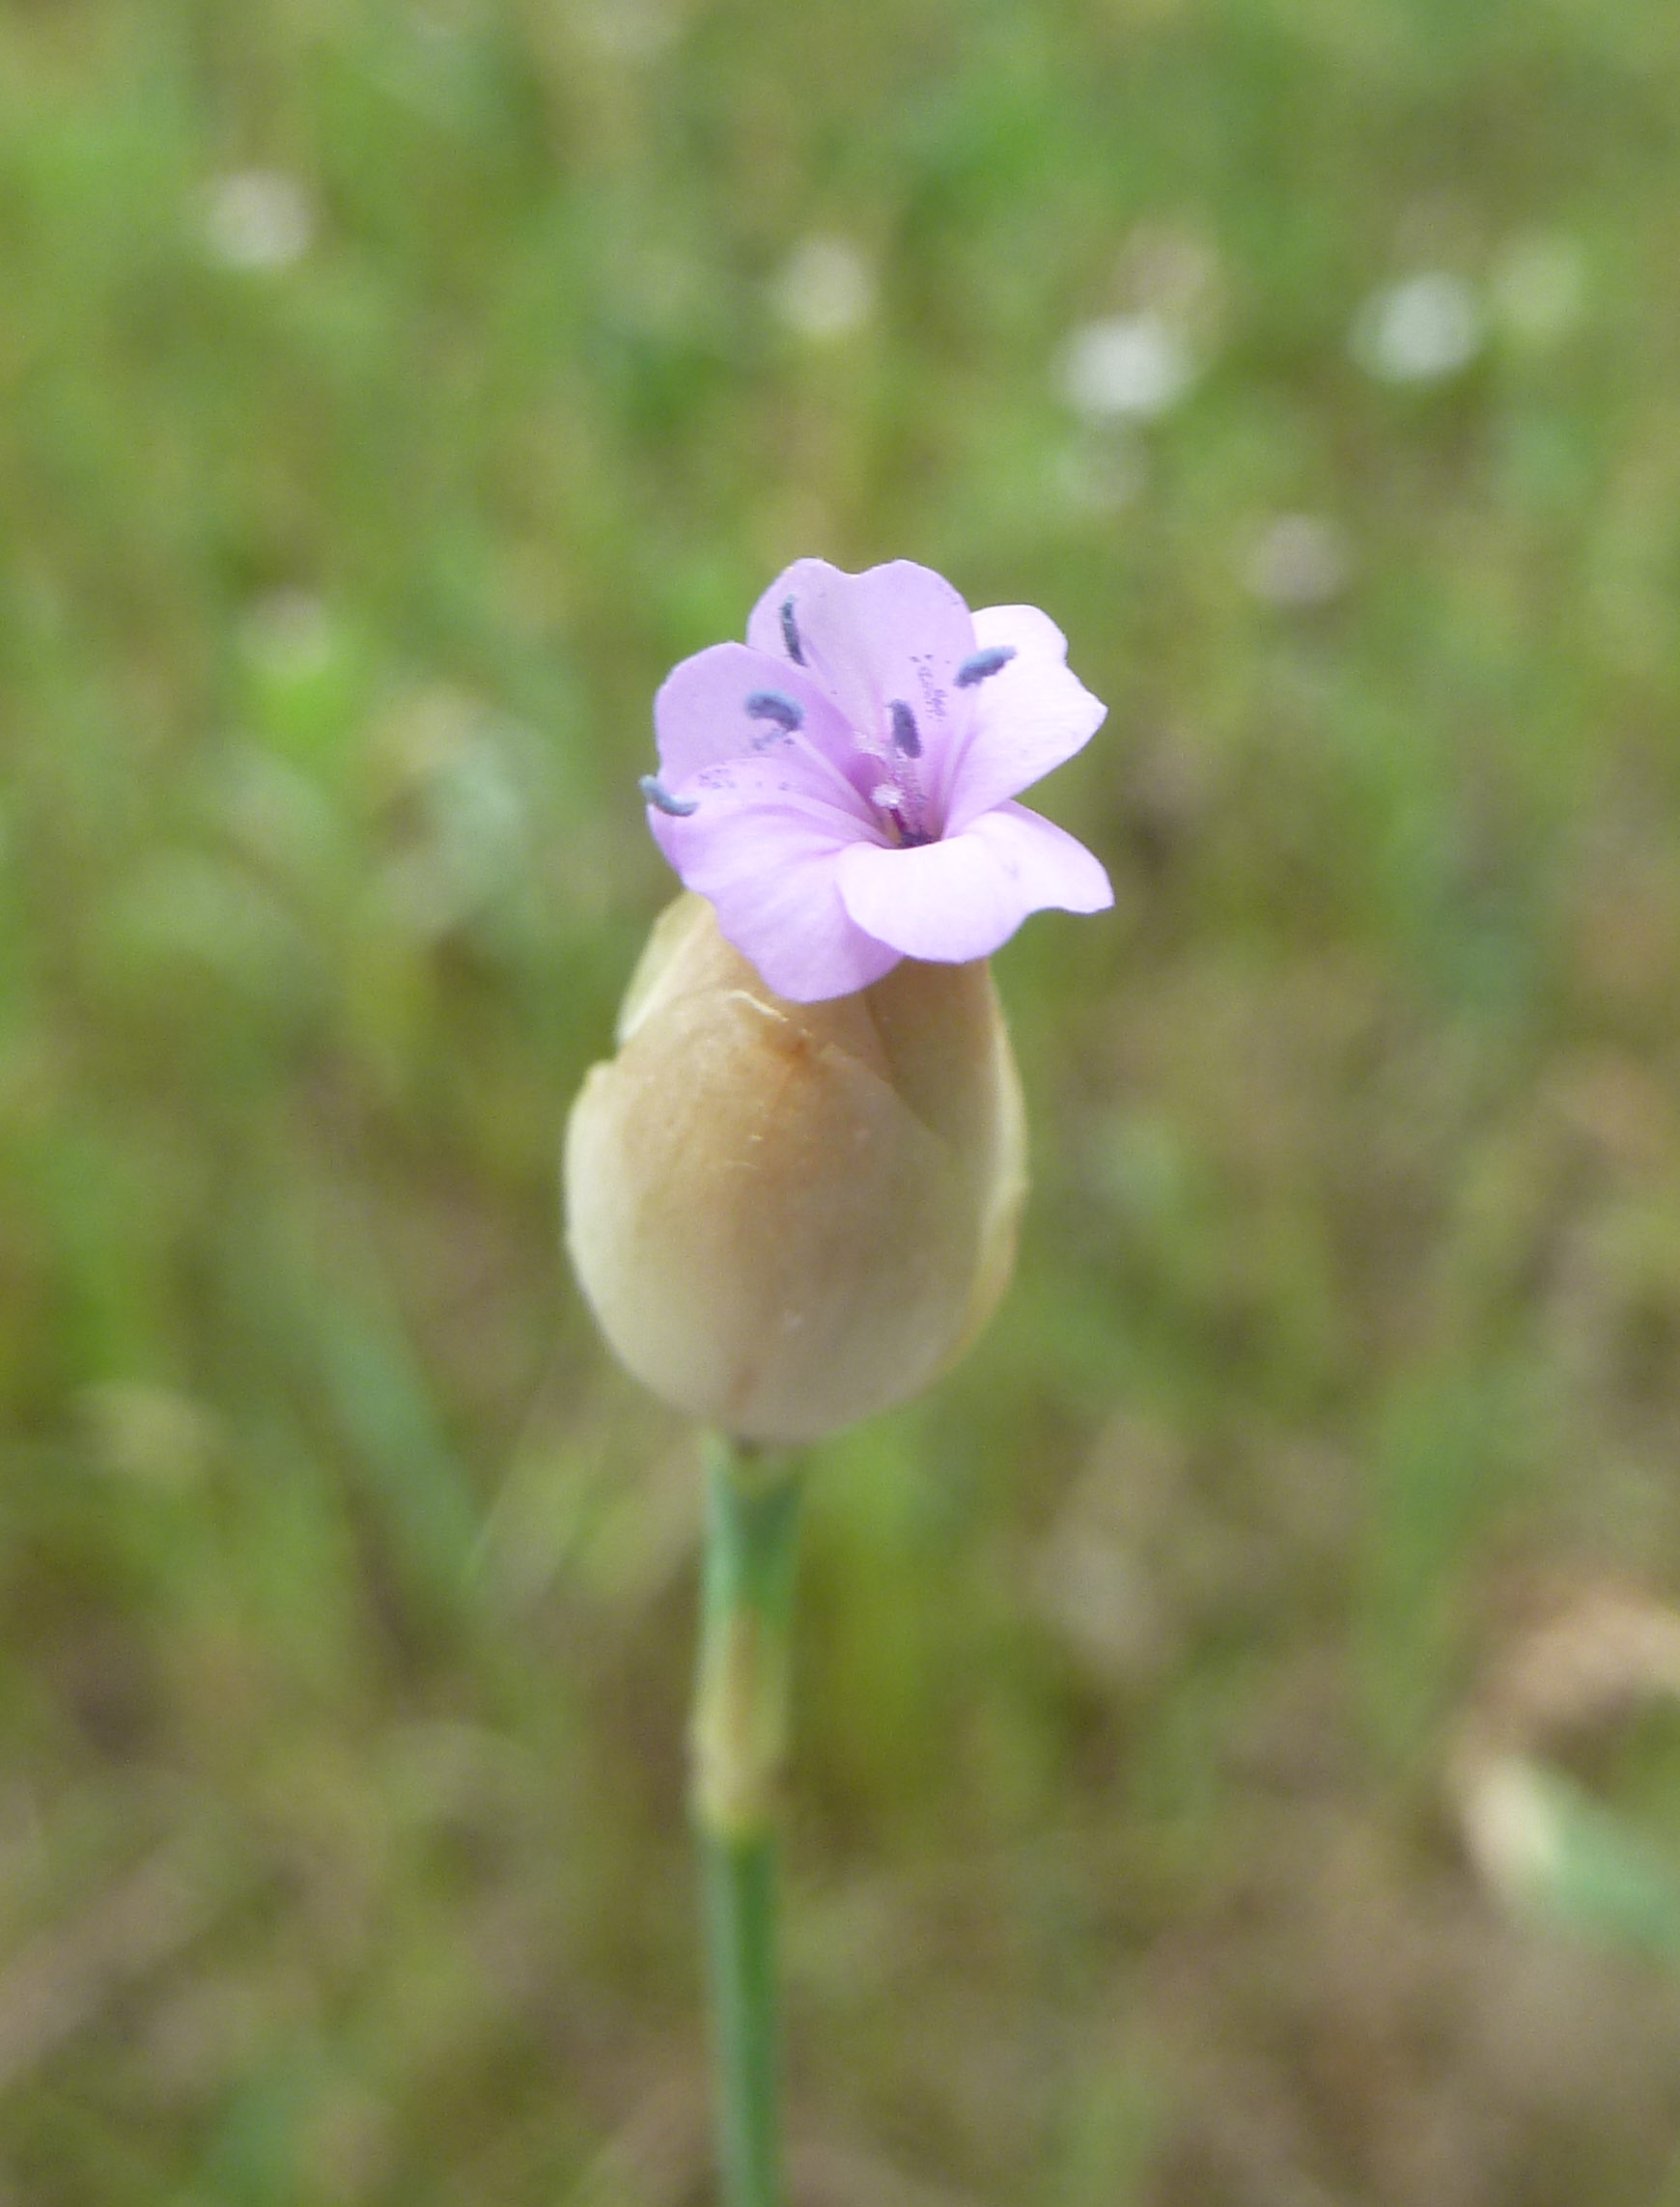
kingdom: Plantae
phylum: Tracheophyta
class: Magnoliopsida
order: Caryophyllales
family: Caryophyllaceae
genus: Petrorhagia
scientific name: Petrorhagia prolifera
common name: Proliferous pink
